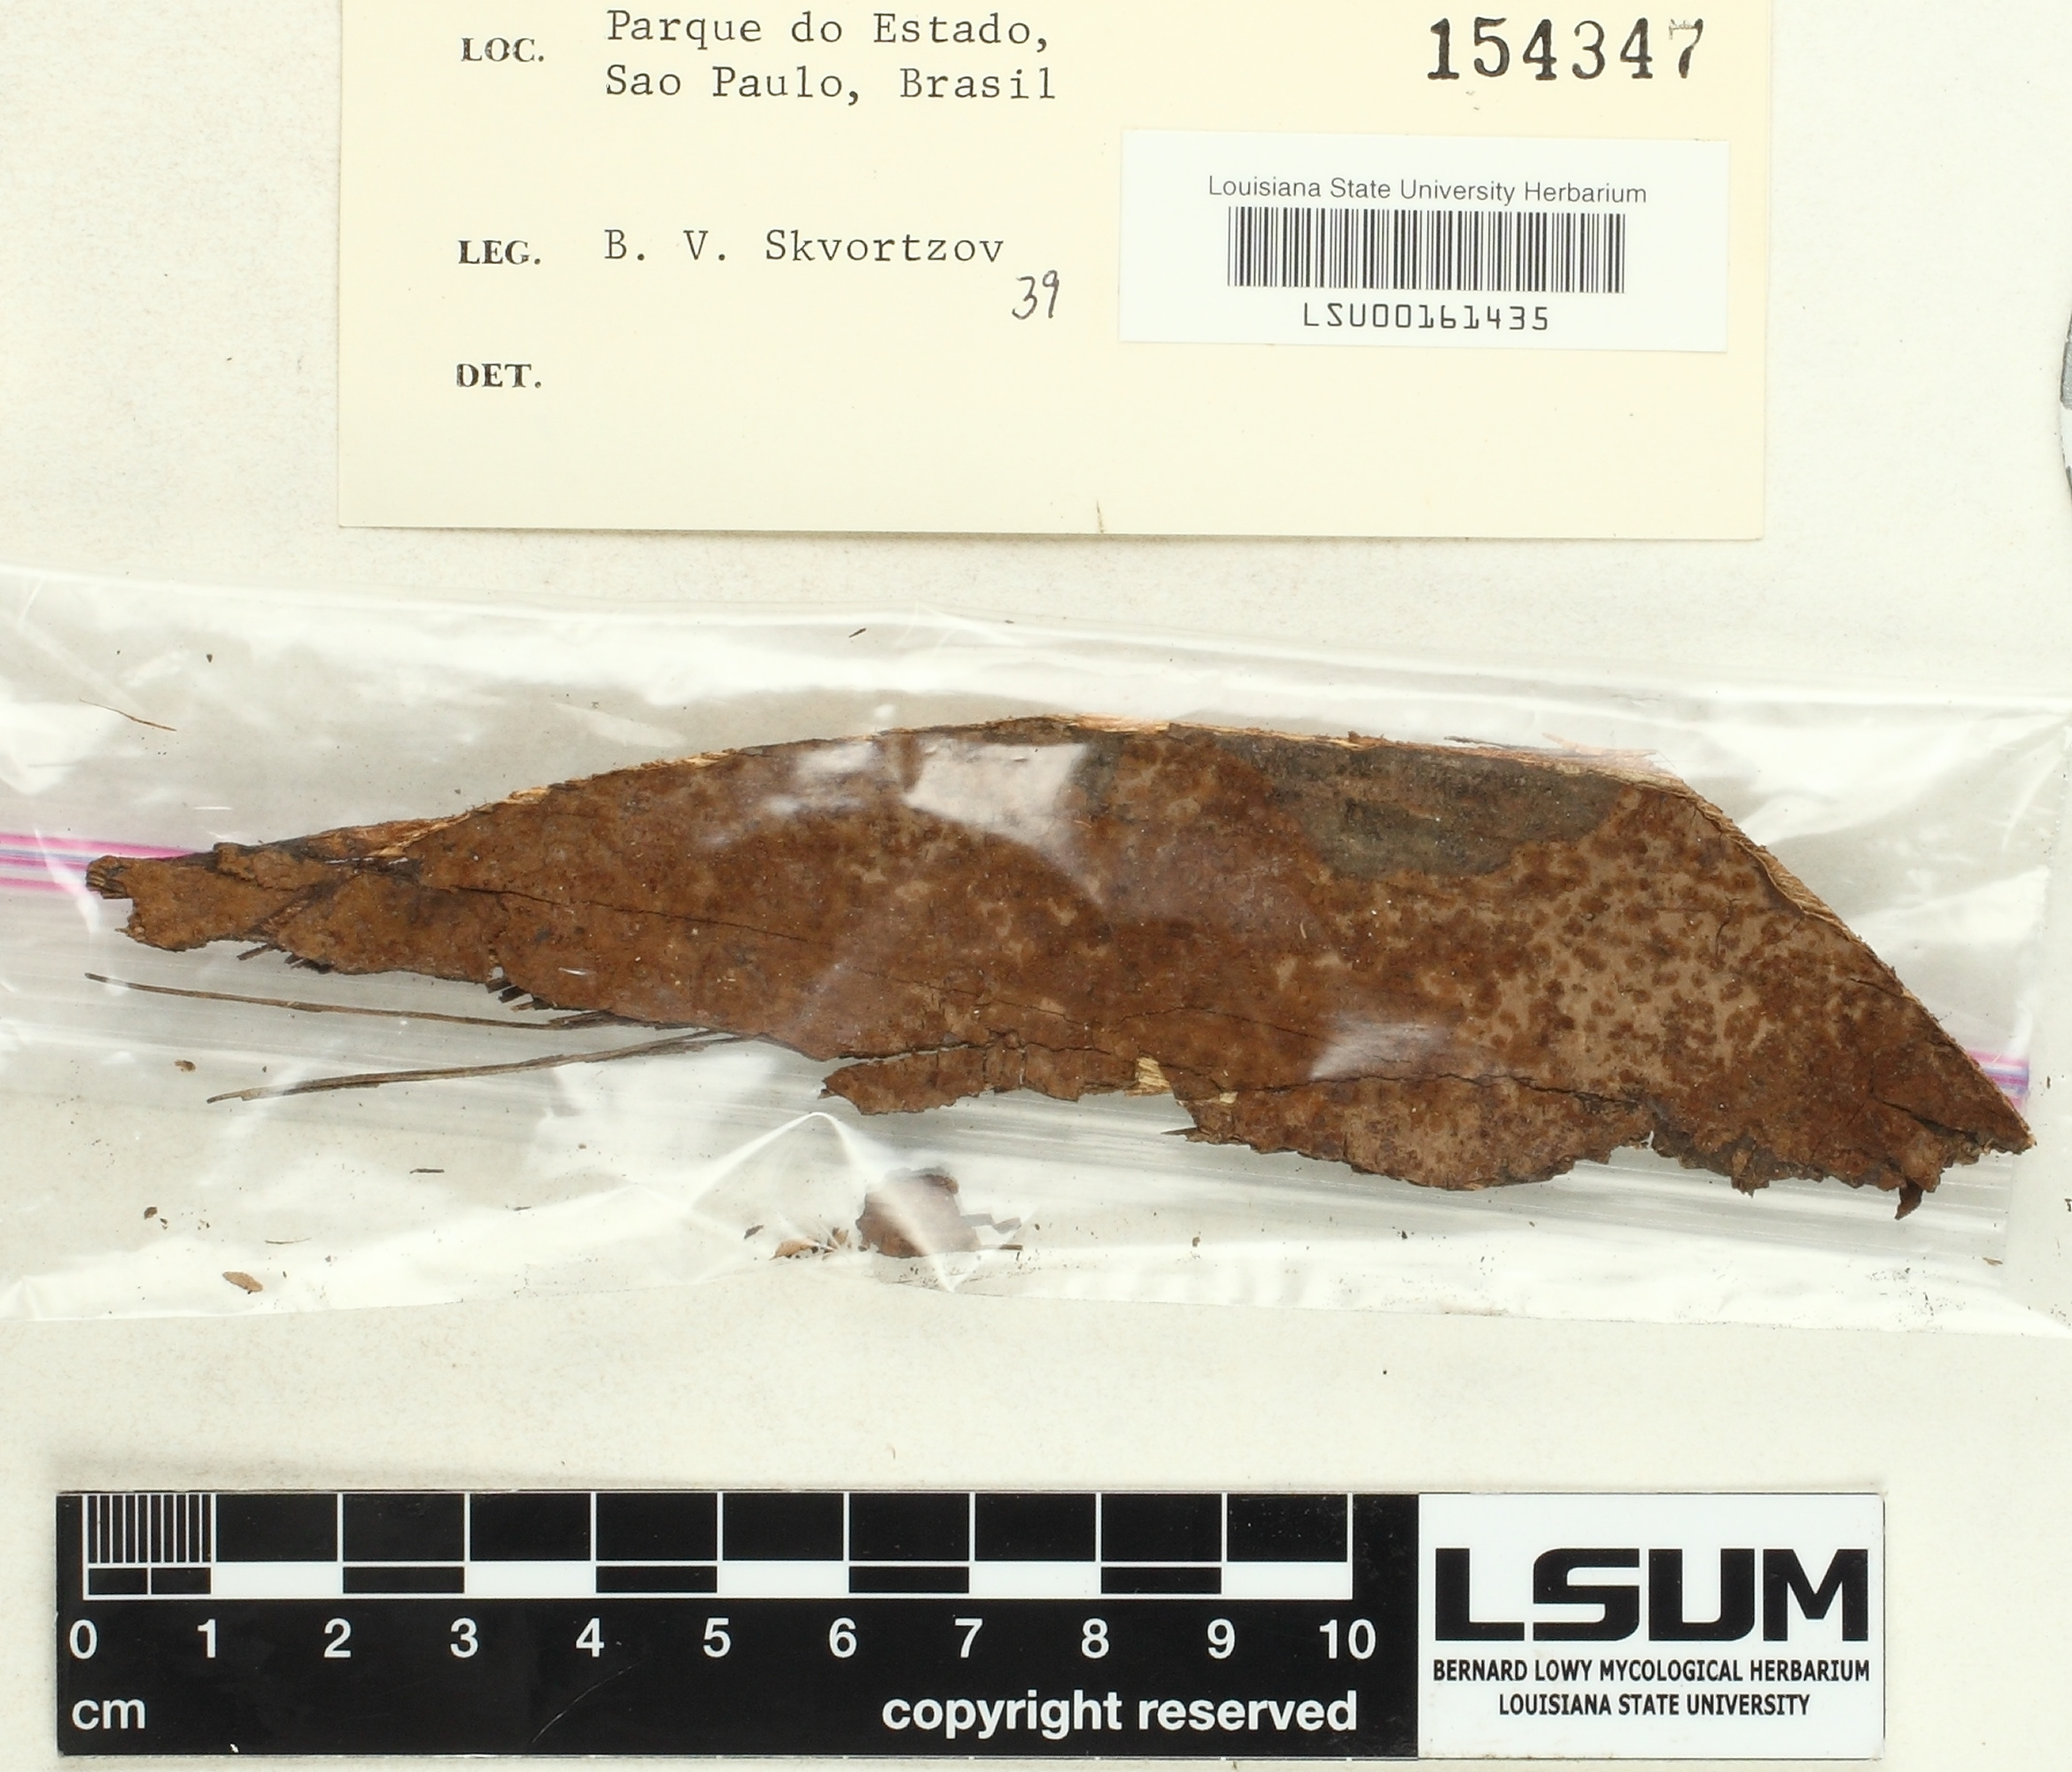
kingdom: Fungi
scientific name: Fungi
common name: Fungi
